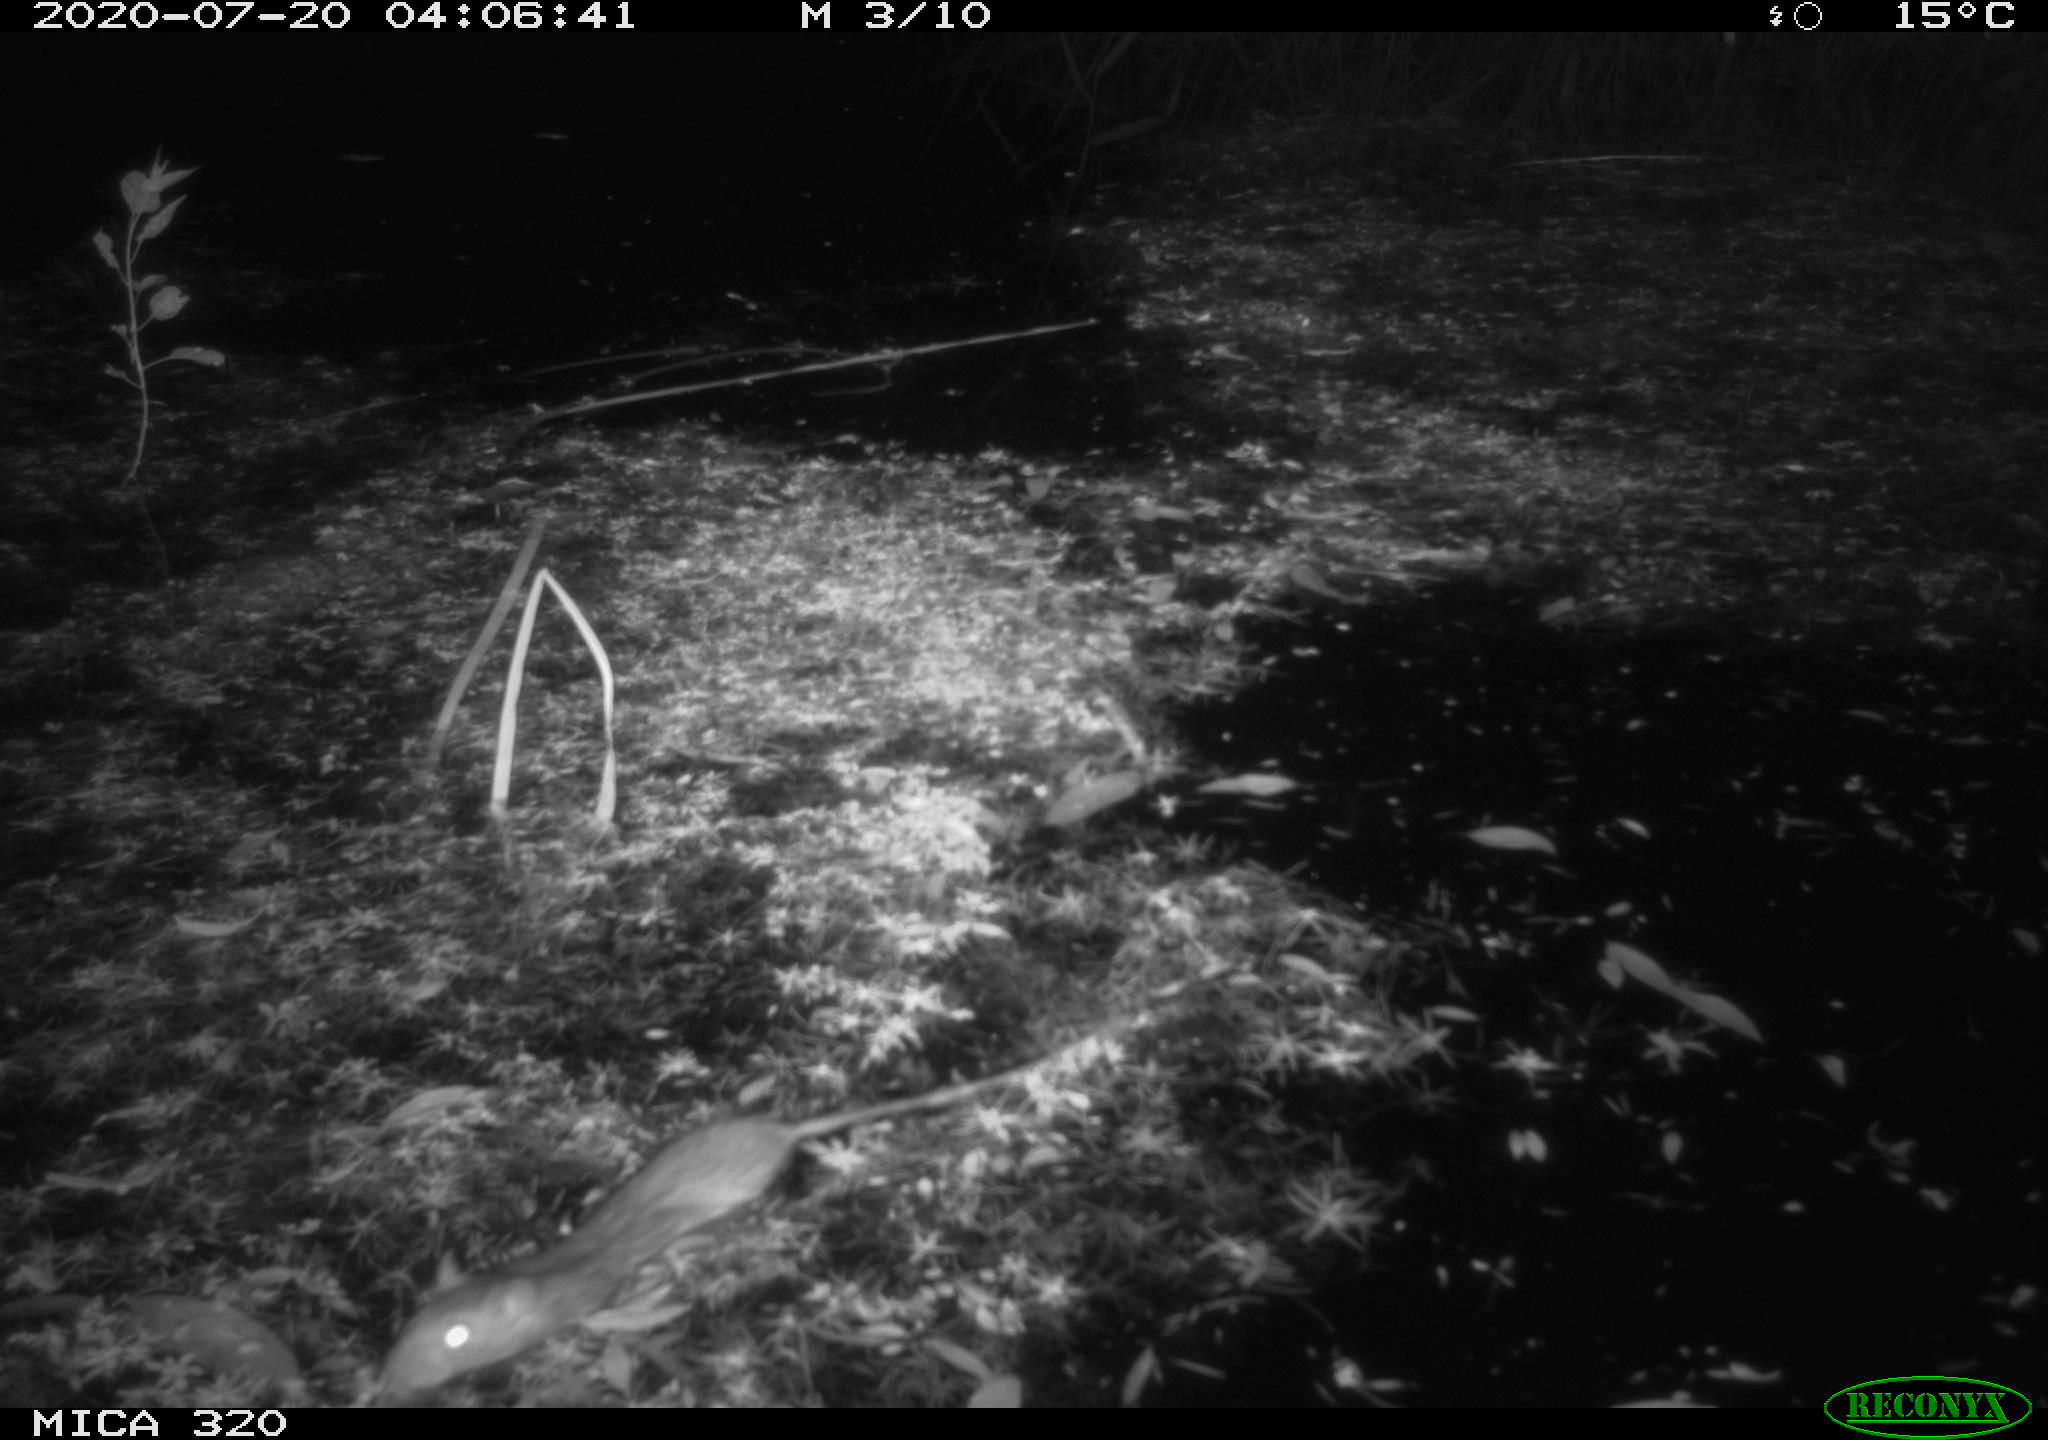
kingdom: Animalia
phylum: Chordata
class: Mammalia
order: Rodentia
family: Muridae
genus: Rattus
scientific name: Rattus norvegicus
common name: Brown rat
